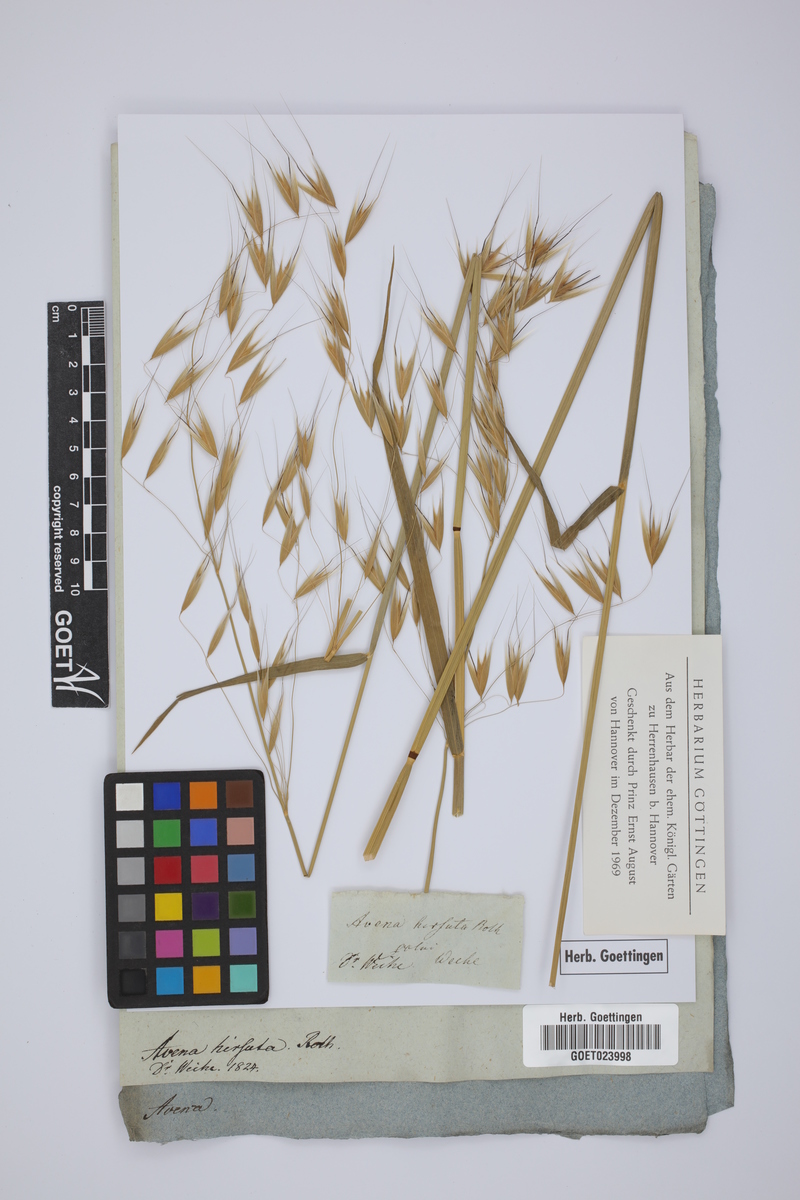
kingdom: Plantae
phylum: Tracheophyta
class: Liliopsida
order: Poales
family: Poaceae
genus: Avena
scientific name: Avena barbata
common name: Slender oat
